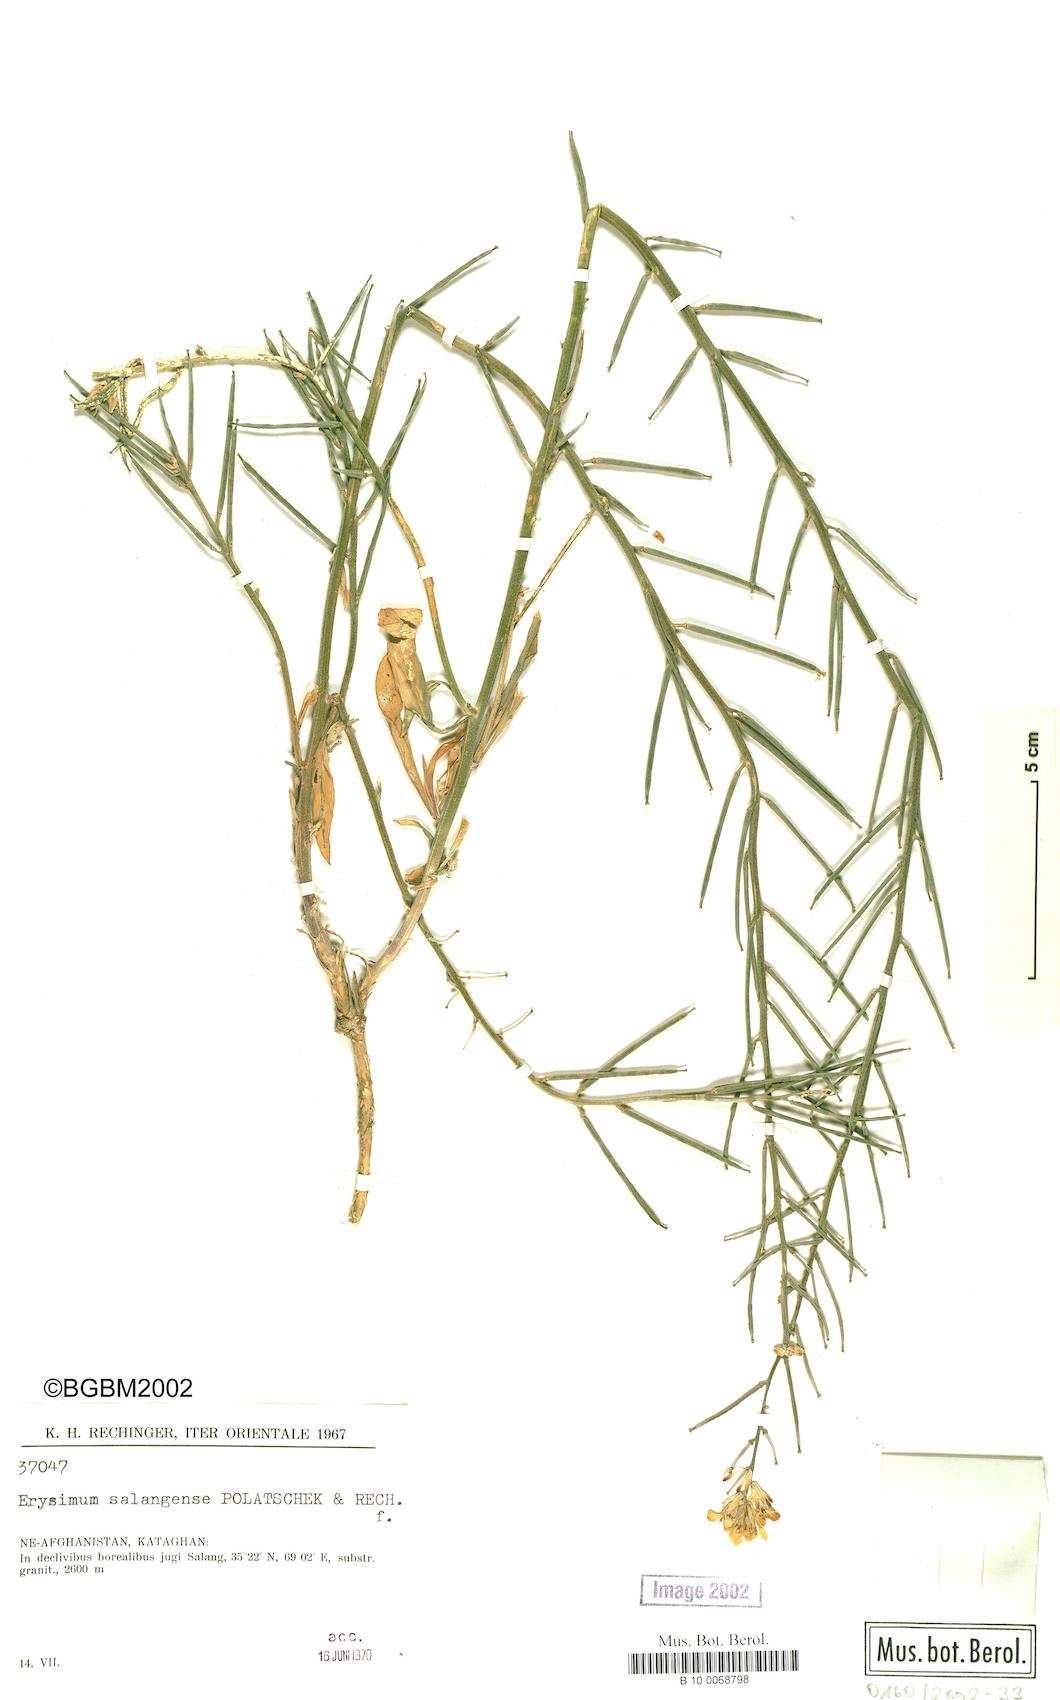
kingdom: Plantae
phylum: Tracheophyta
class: Magnoliopsida
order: Brassicales
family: Brassicaceae
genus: Erysimum
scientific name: Erysimum salangense
